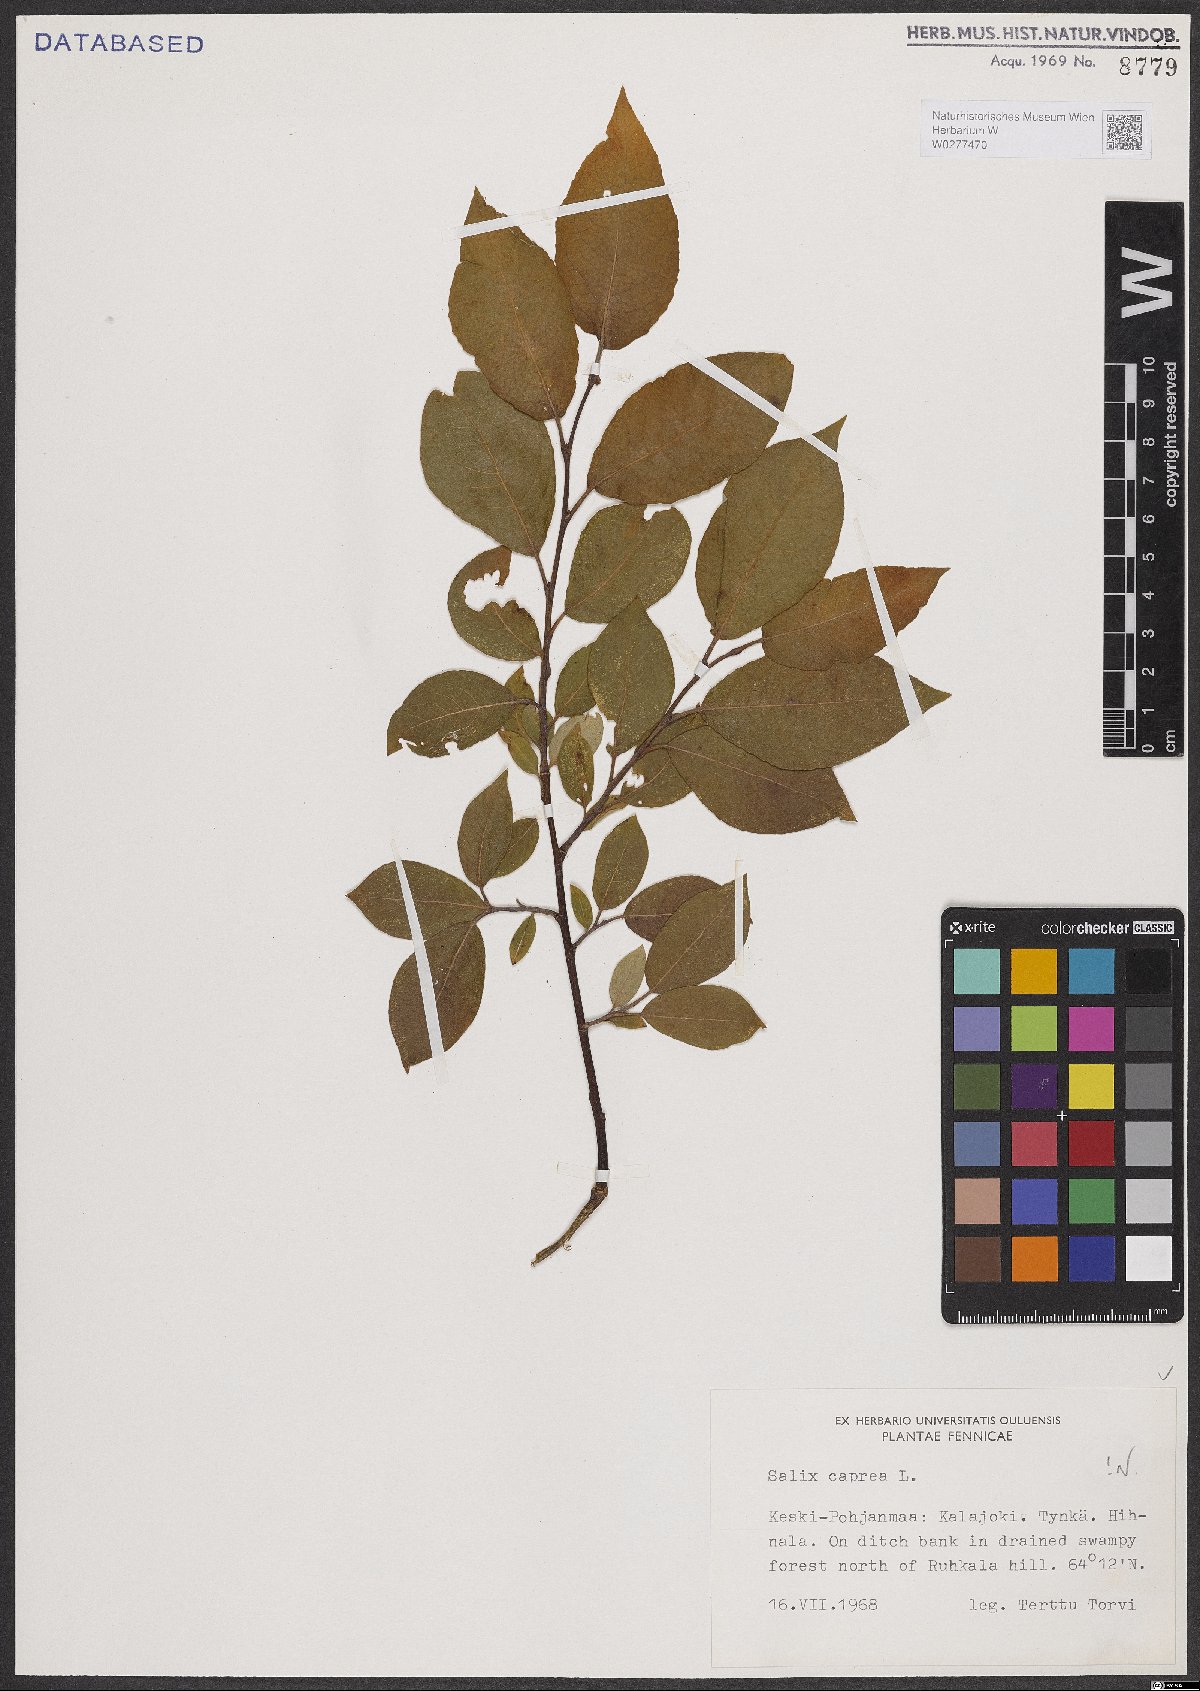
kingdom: Plantae
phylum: Tracheophyta
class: Magnoliopsida
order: Malpighiales
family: Salicaceae
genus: Salix
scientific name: Salix caprea
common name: Goat willow
